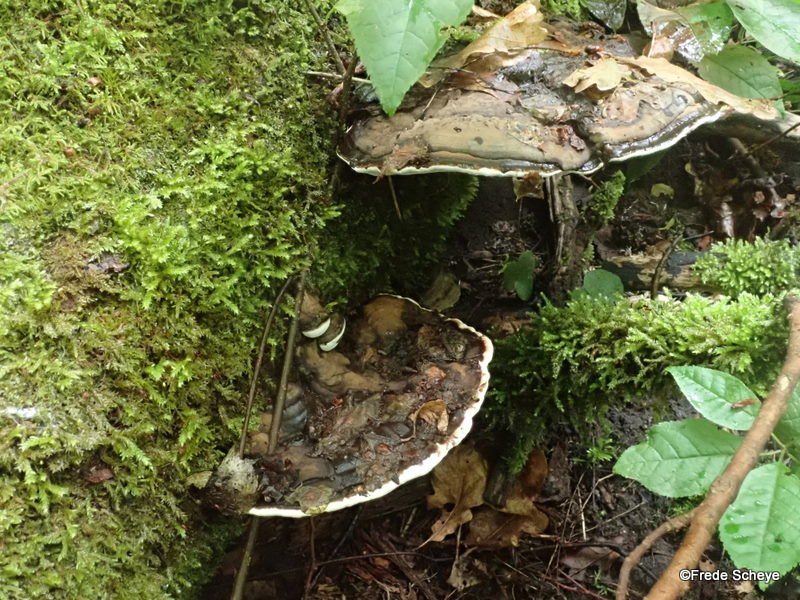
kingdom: Fungi
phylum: Basidiomycota
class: Agaricomycetes
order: Polyporales
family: Polyporaceae
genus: Ganoderma
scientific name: Ganoderma applanatum
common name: flad lakporesvamp
